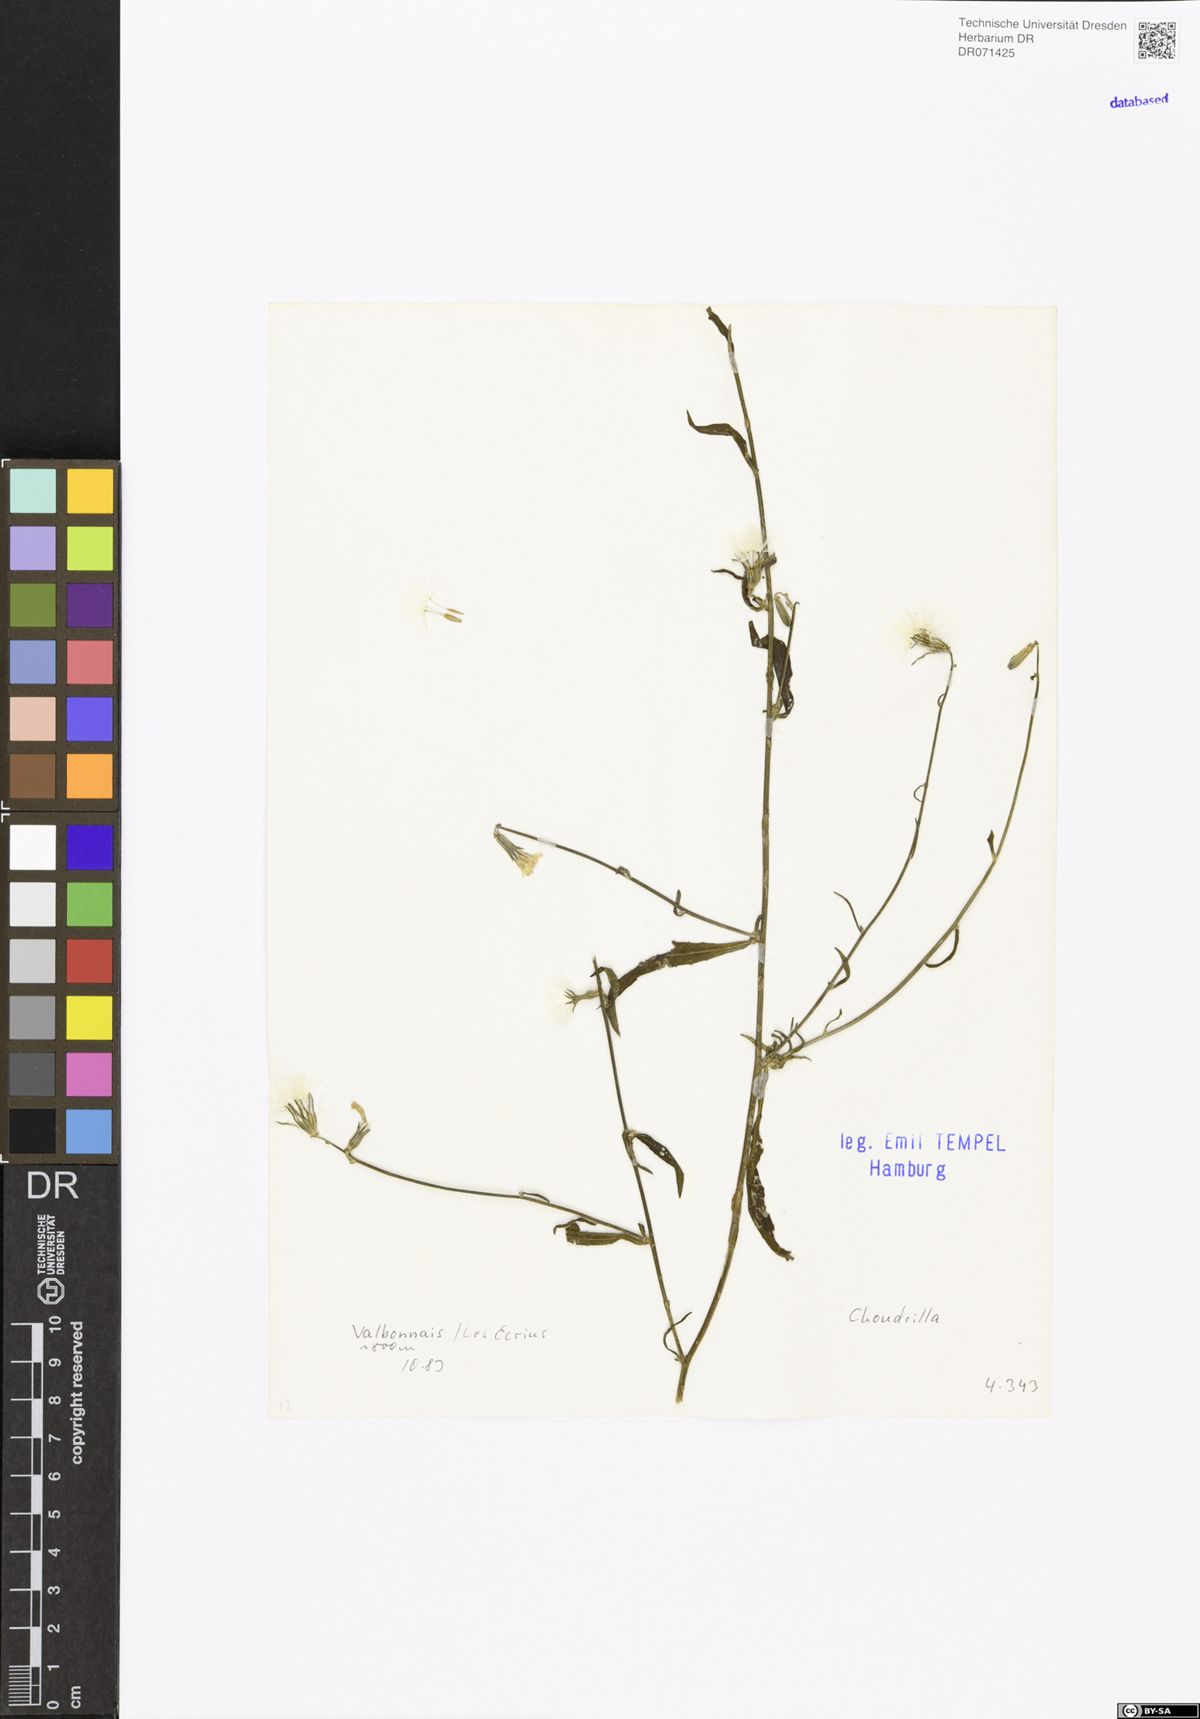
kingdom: Plantae
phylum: Tracheophyta
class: Magnoliopsida
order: Asterales
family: Asteraceae
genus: Chondrilla
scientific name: Chondrilla
